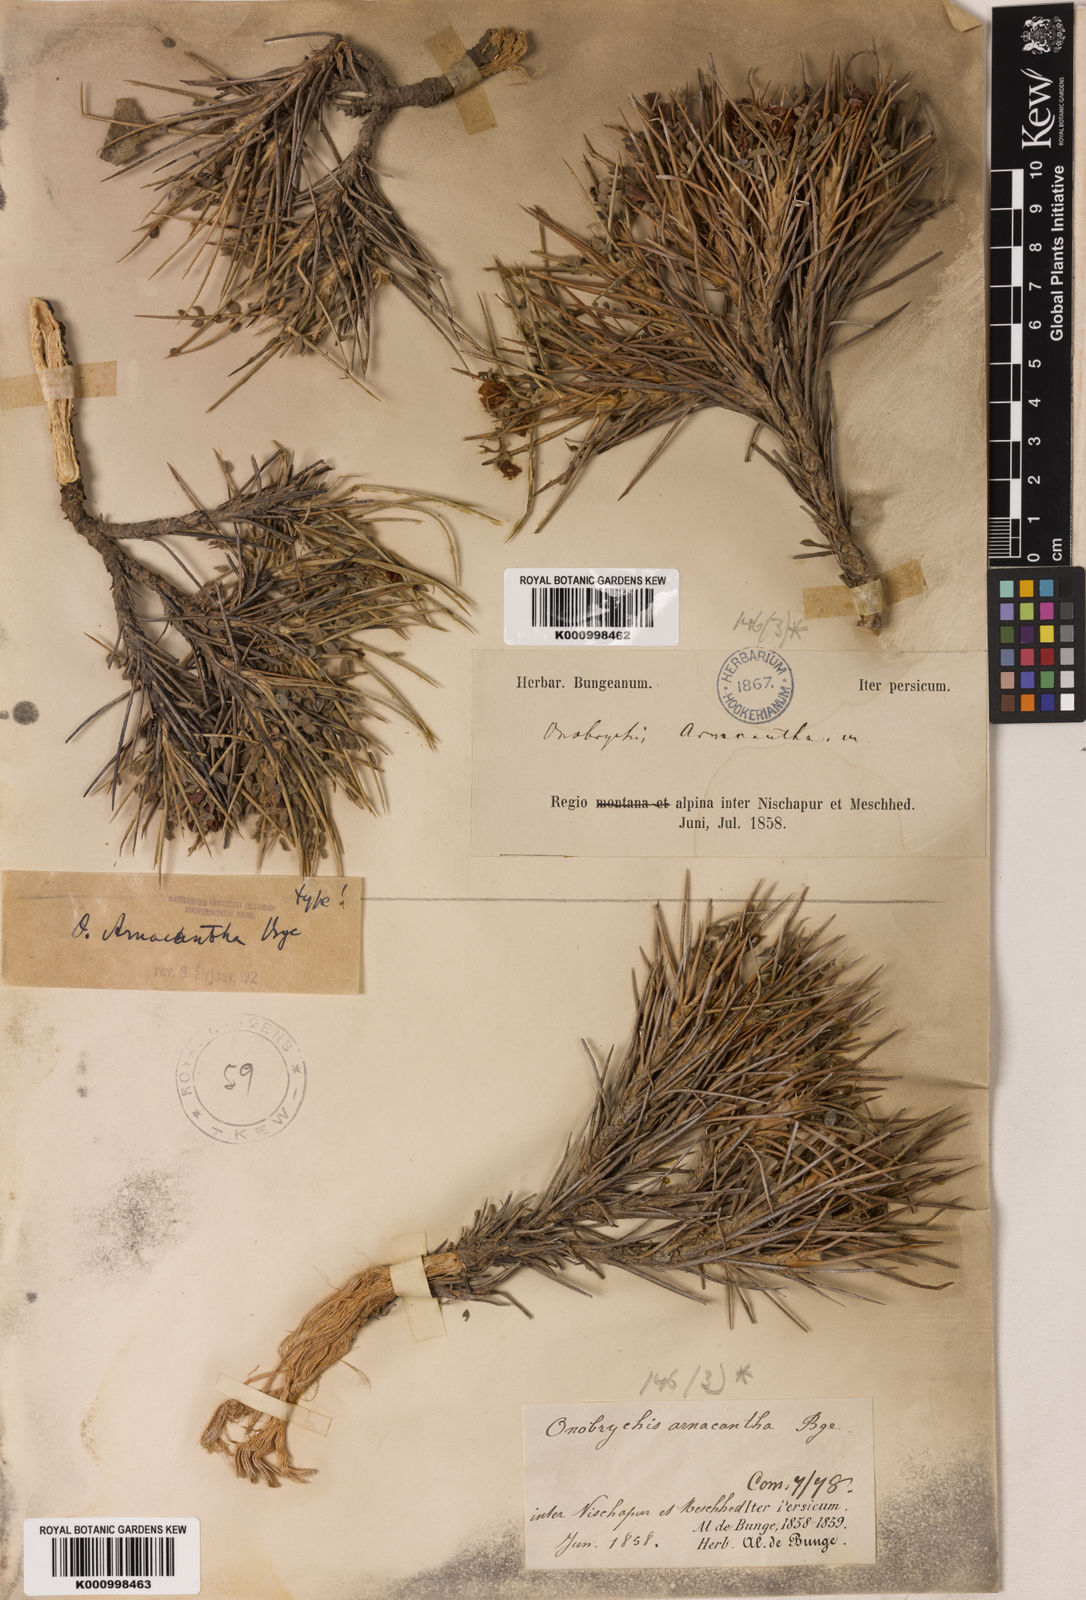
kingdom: Plantae
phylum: Tracheophyta
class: Magnoliopsida
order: Fabales
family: Fabaceae
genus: Onobrychis
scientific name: Onobrychis arnacantha
